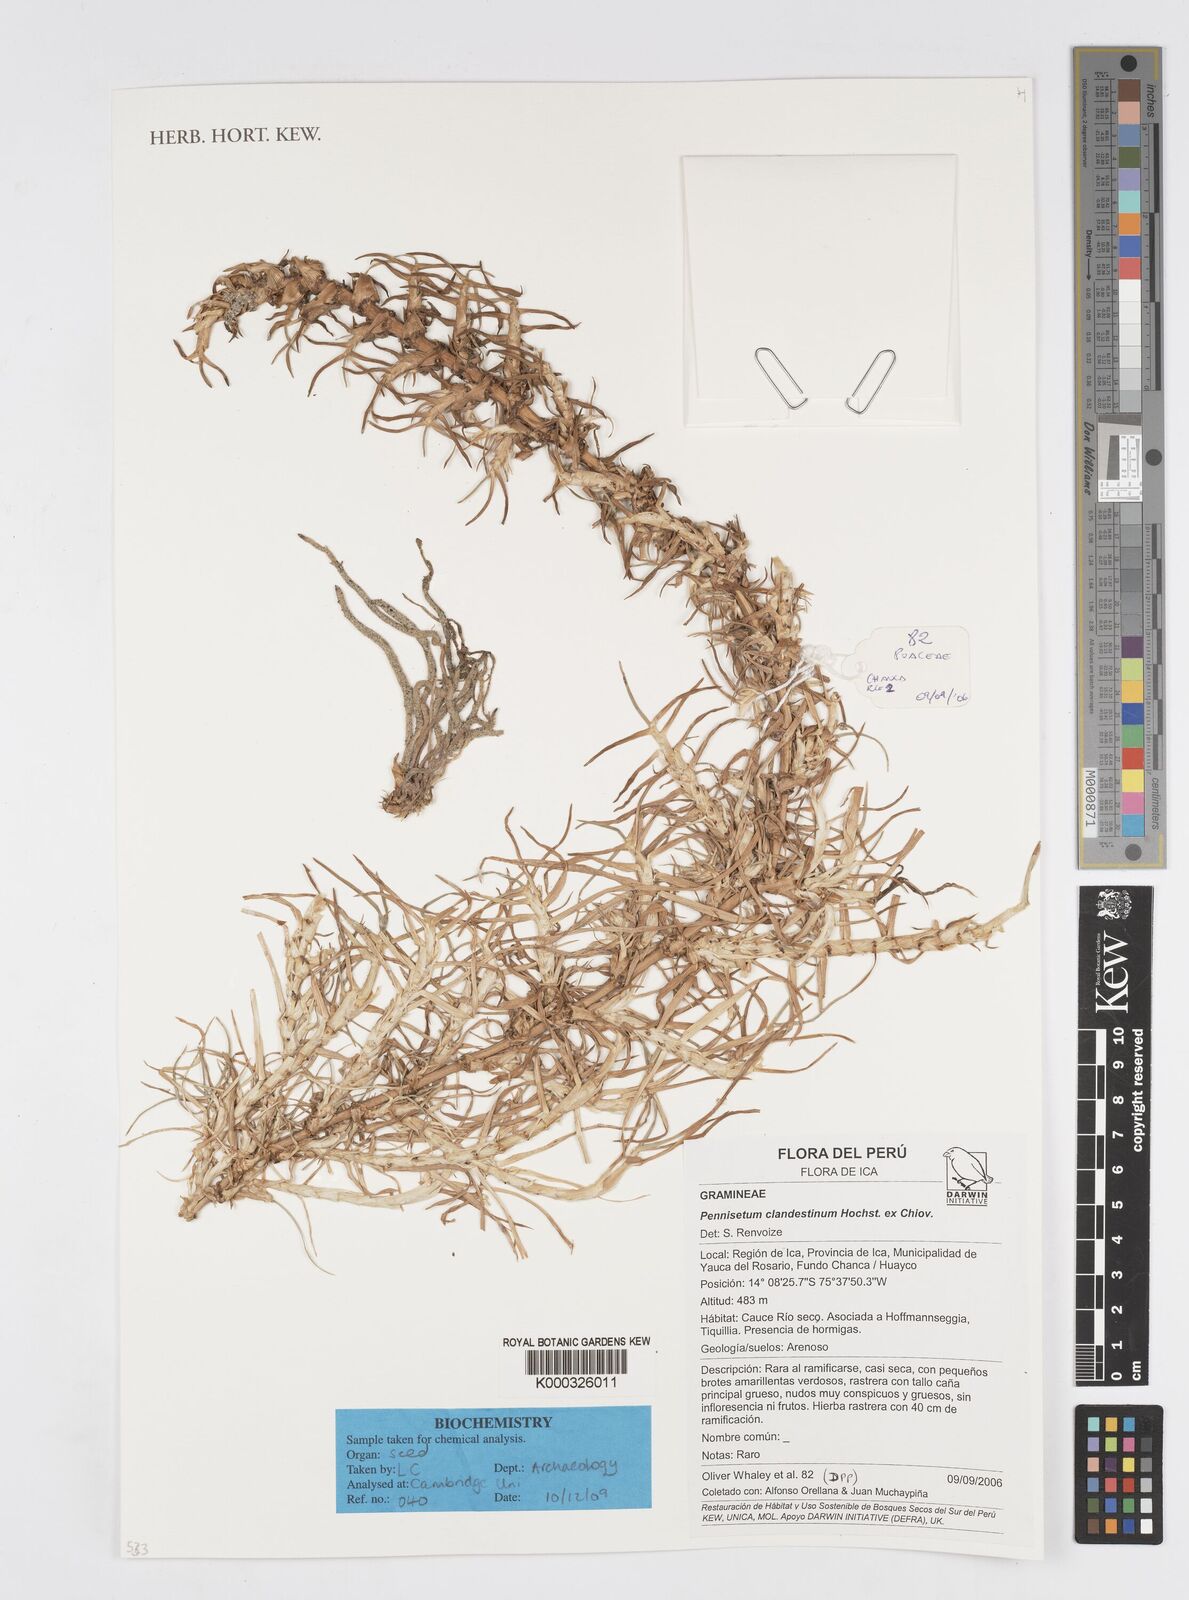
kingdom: Plantae
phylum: Tracheophyta
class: Liliopsida
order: Poales
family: Poaceae
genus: Cenchrus
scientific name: Cenchrus clandestinus
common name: Kikuyugrass
